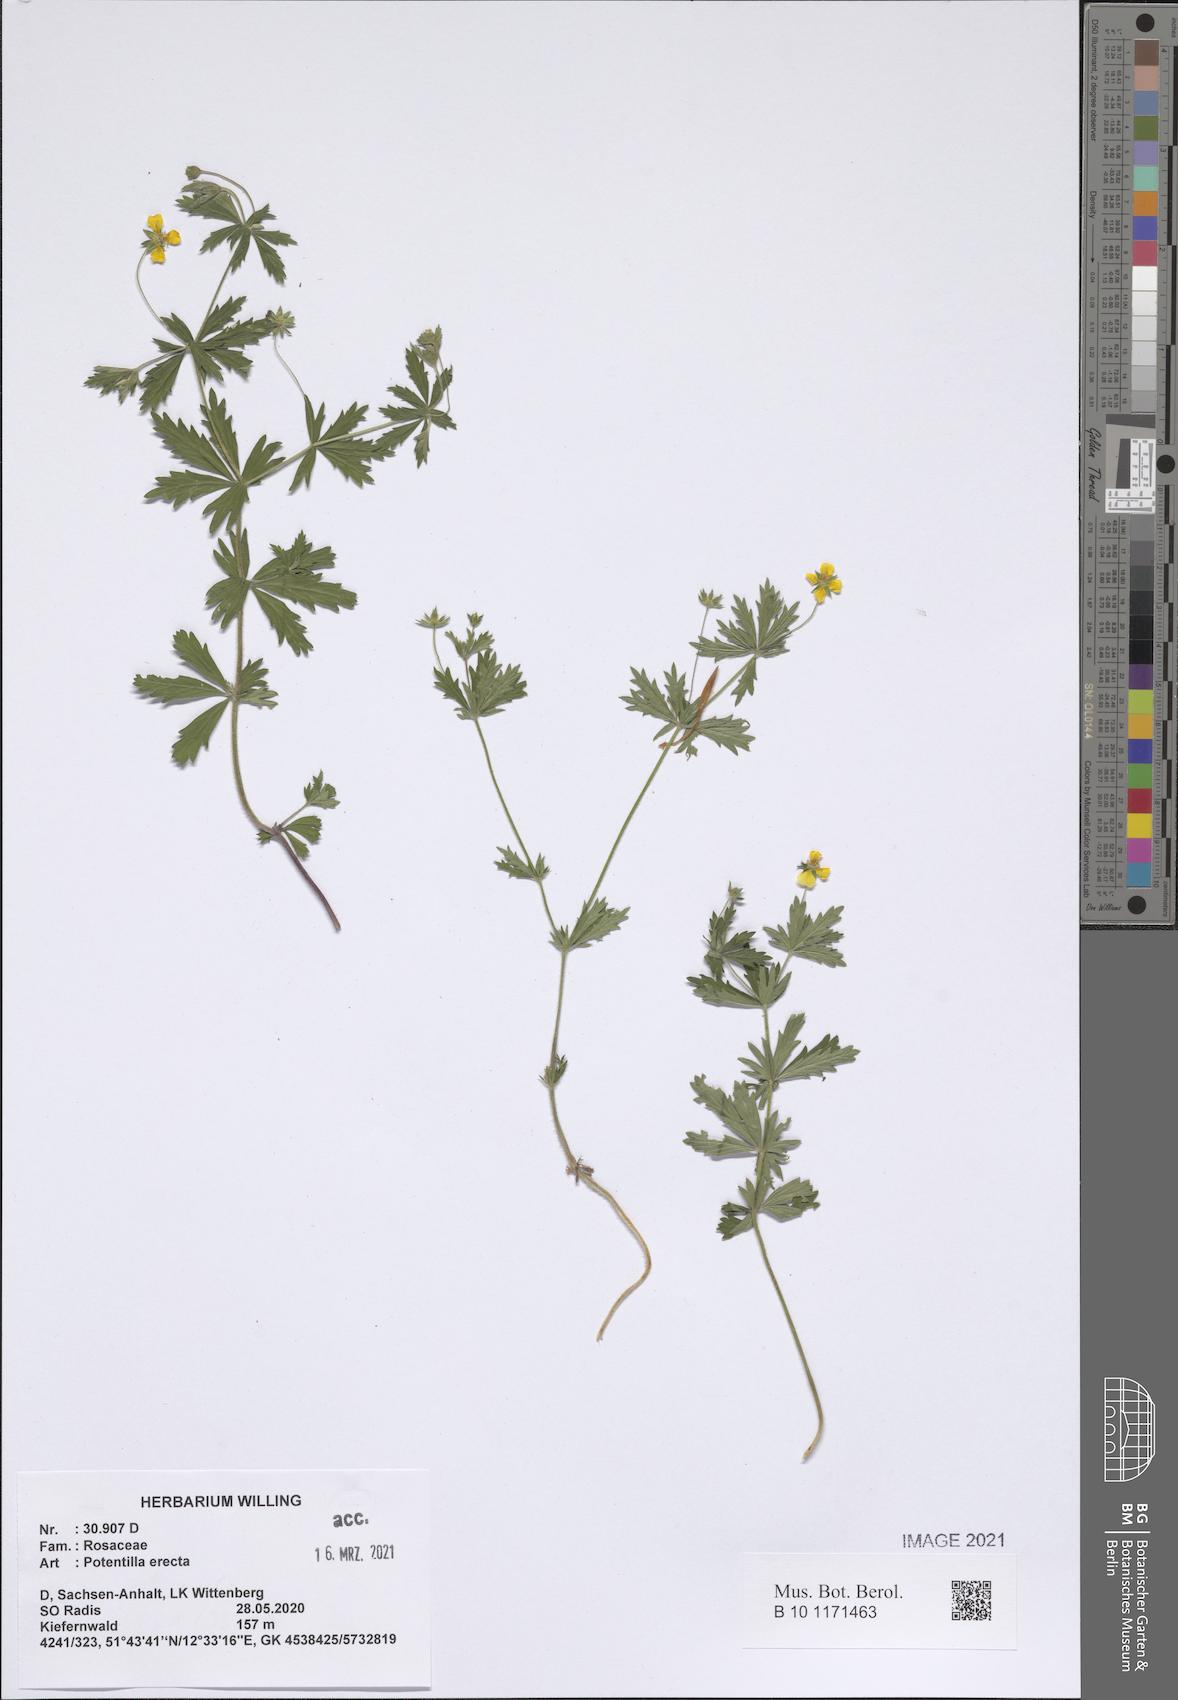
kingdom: Plantae
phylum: Tracheophyta
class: Magnoliopsida
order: Rosales
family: Rosaceae
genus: Potentilla
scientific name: Potentilla erecta
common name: Tormentil
